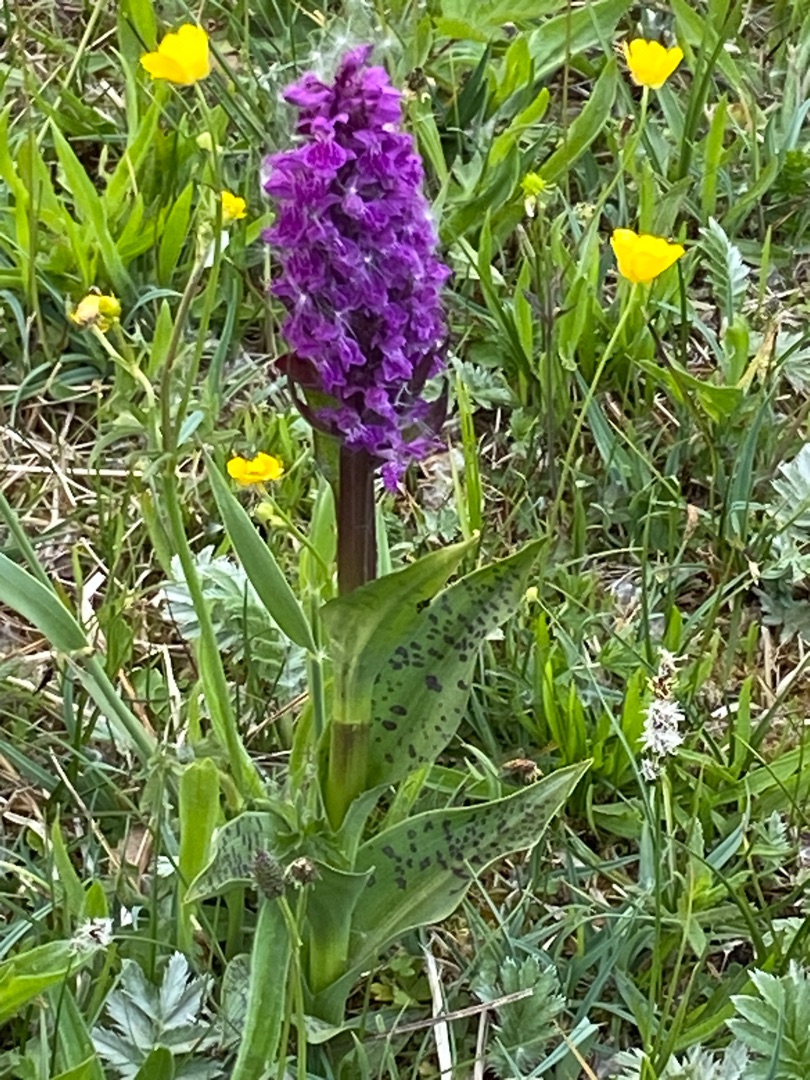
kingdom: Plantae
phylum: Tracheophyta
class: Liliopsida
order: Asparagales
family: Orchidaceae
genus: Dactylorhiza
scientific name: Dactylorhiza majalis
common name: Maj-gøgeurt
